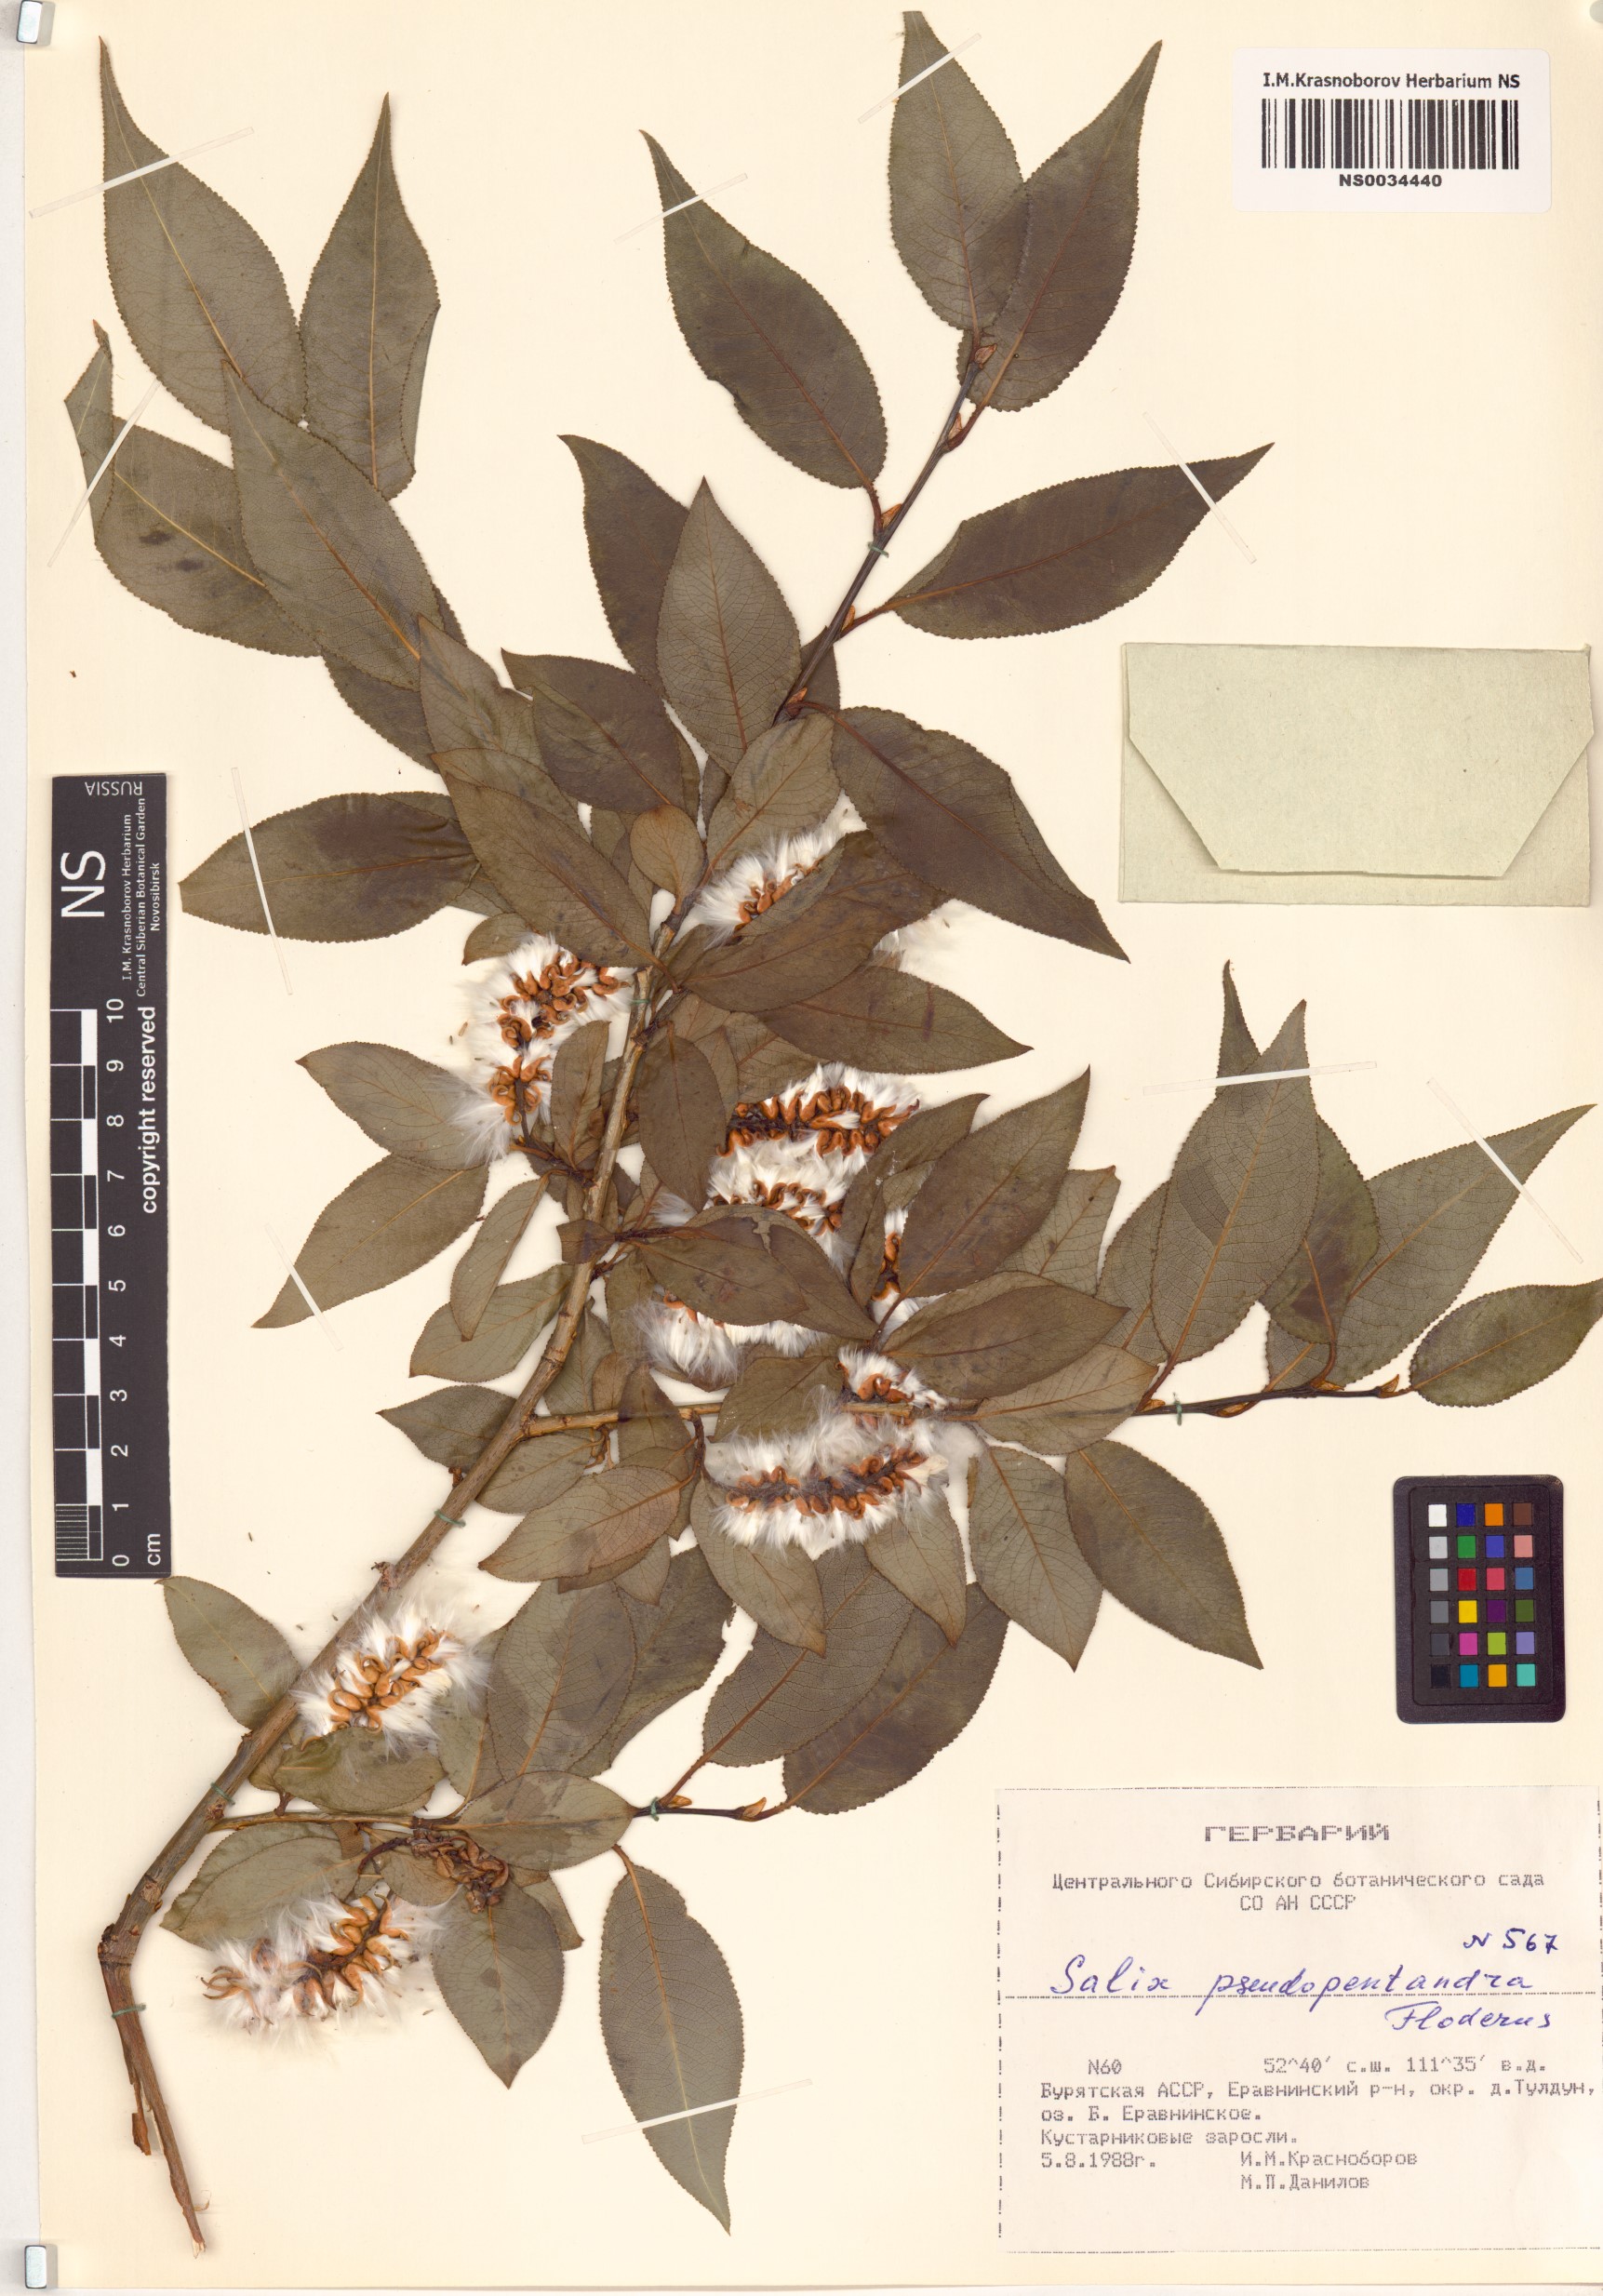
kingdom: Plantae
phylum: Tracheophyta
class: Magnoliopsida
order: Malpighiales
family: Salicaceae
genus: Salix
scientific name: Salix pseudopentandra
